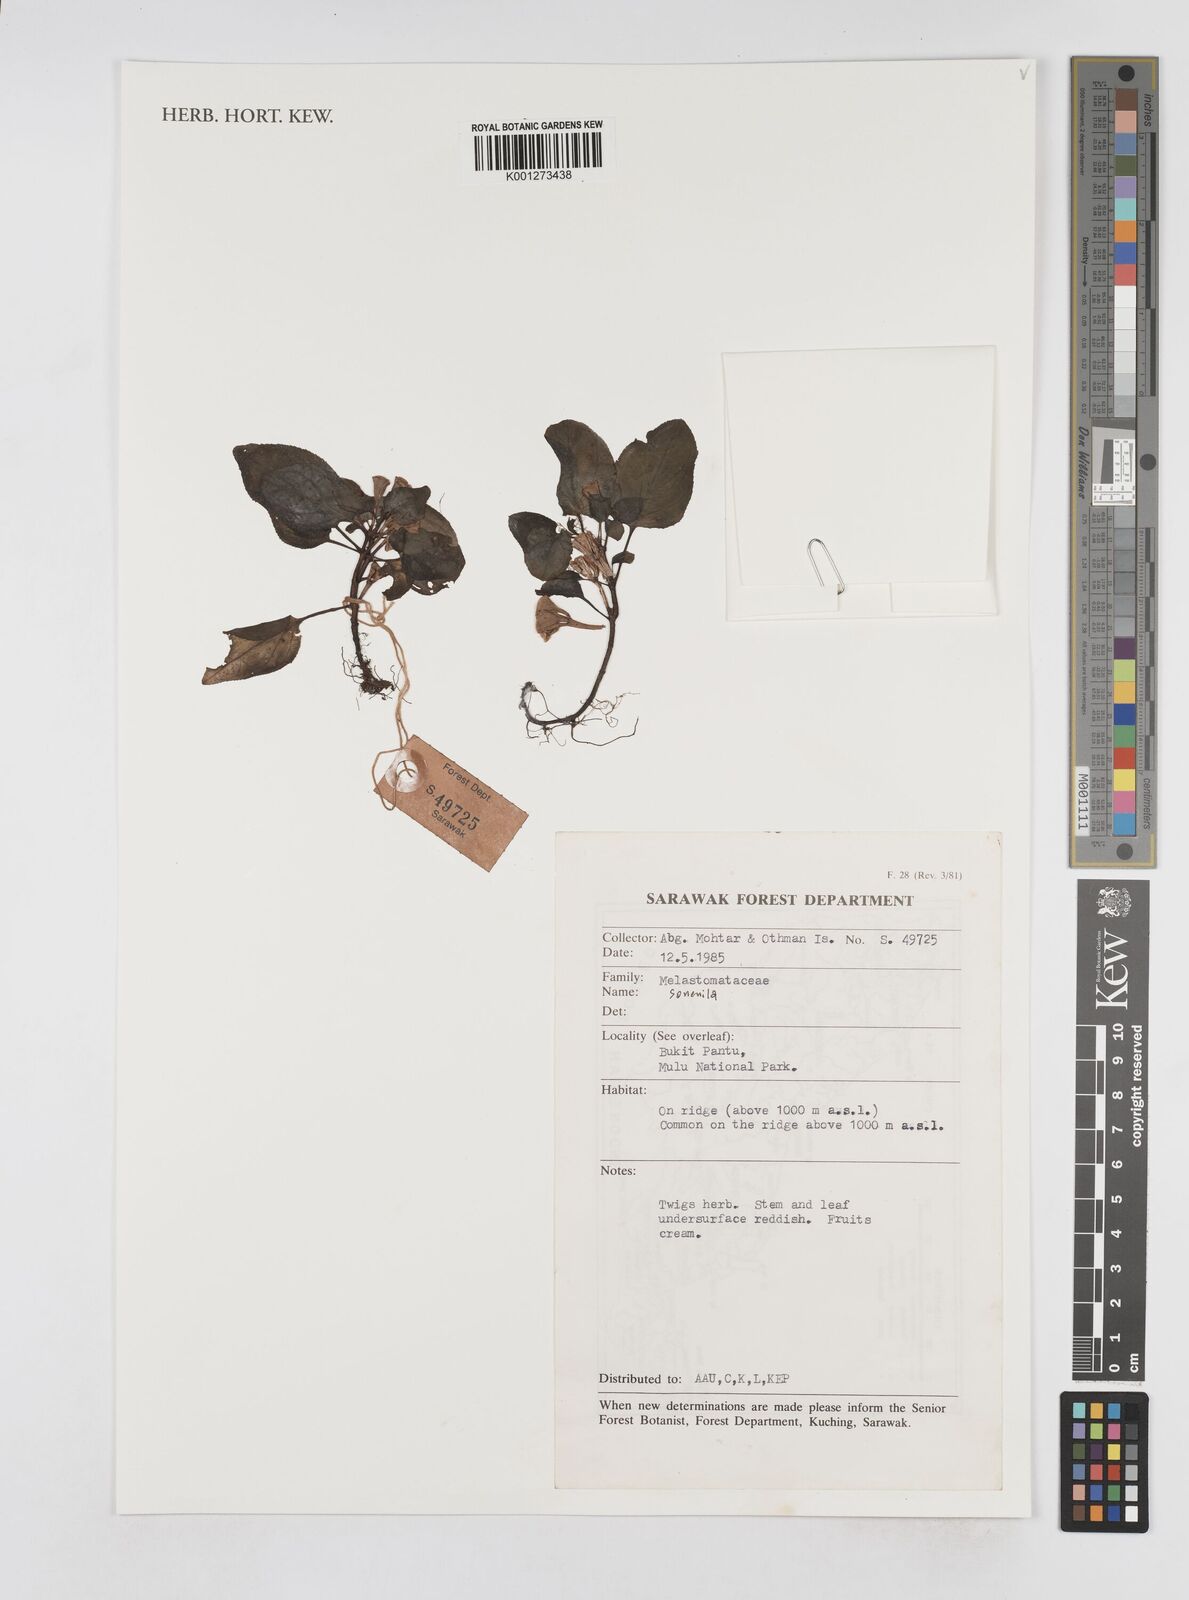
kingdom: Plantae
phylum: Tracheophyta
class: Magnoliopsida
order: Myrtales
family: Melastomataceae
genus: Sonerila
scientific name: Sonerila
